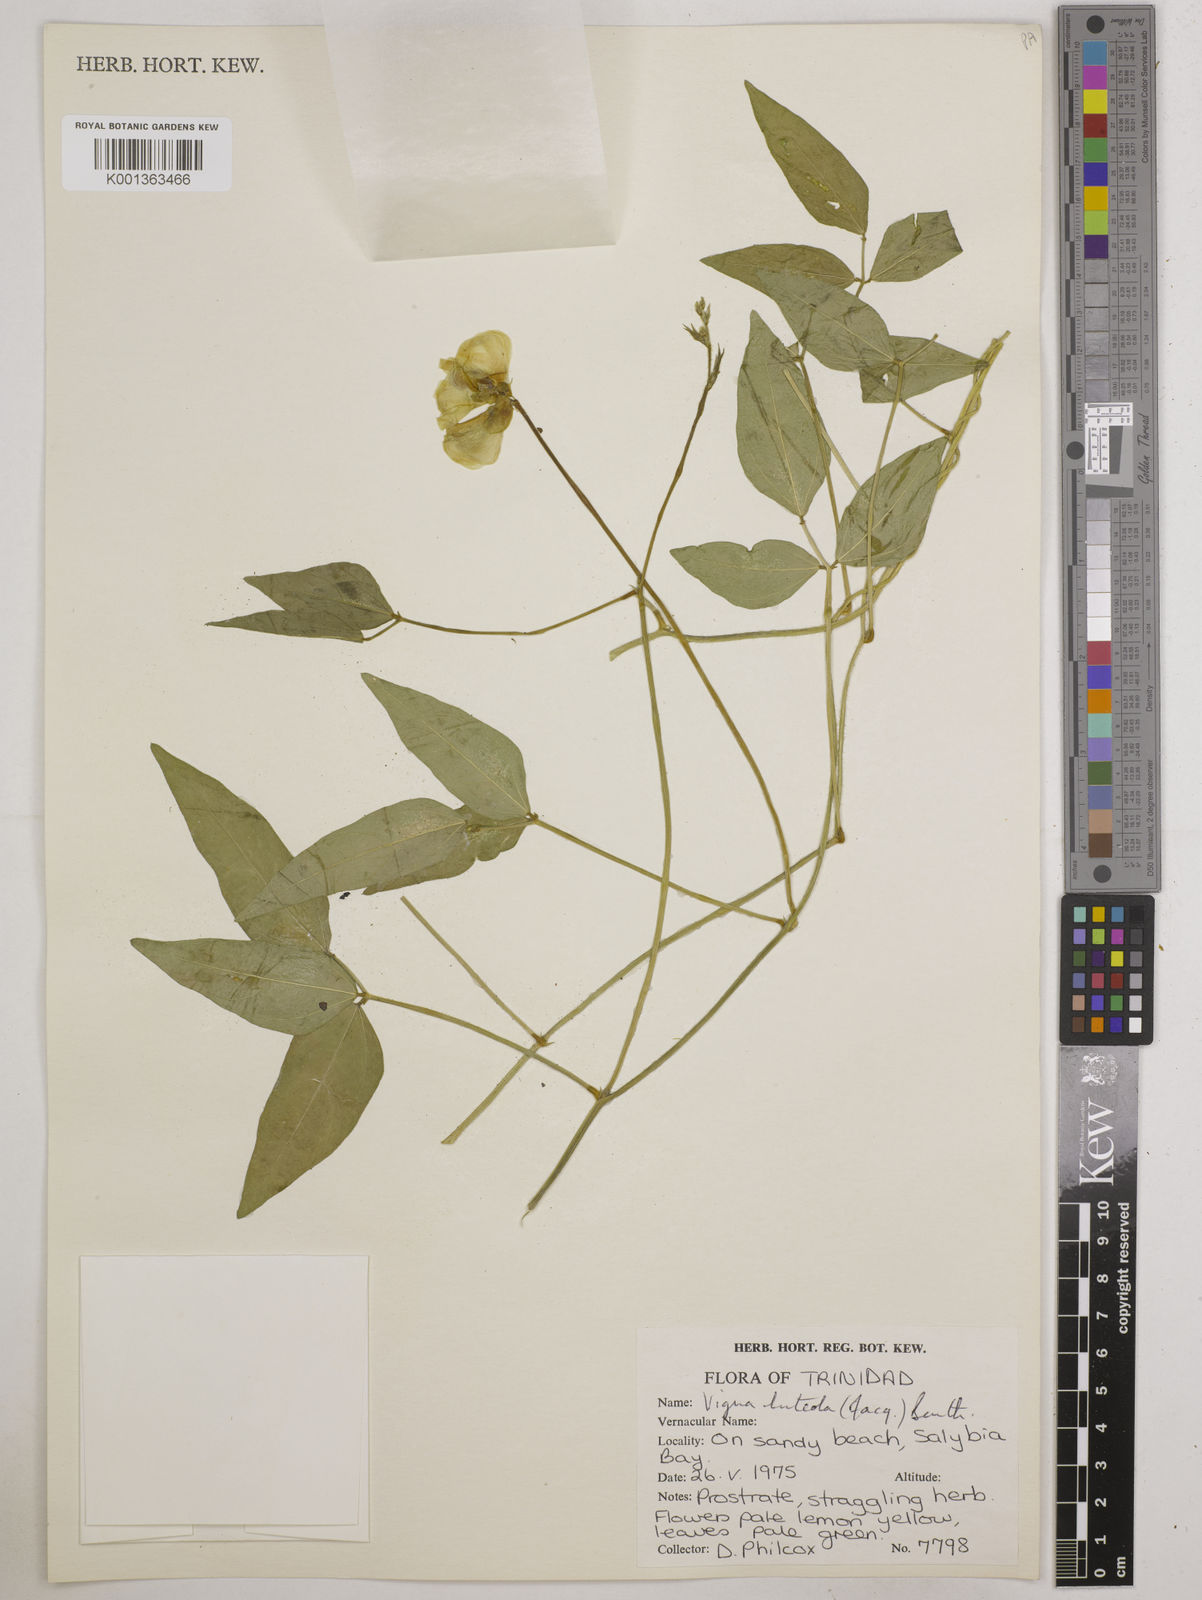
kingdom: Plantae
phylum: Tracheophyta
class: Magnoliopsida
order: Fabales
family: Fabaceae
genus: Vigna
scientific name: Vigna luteola
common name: Hairypod cowpea
